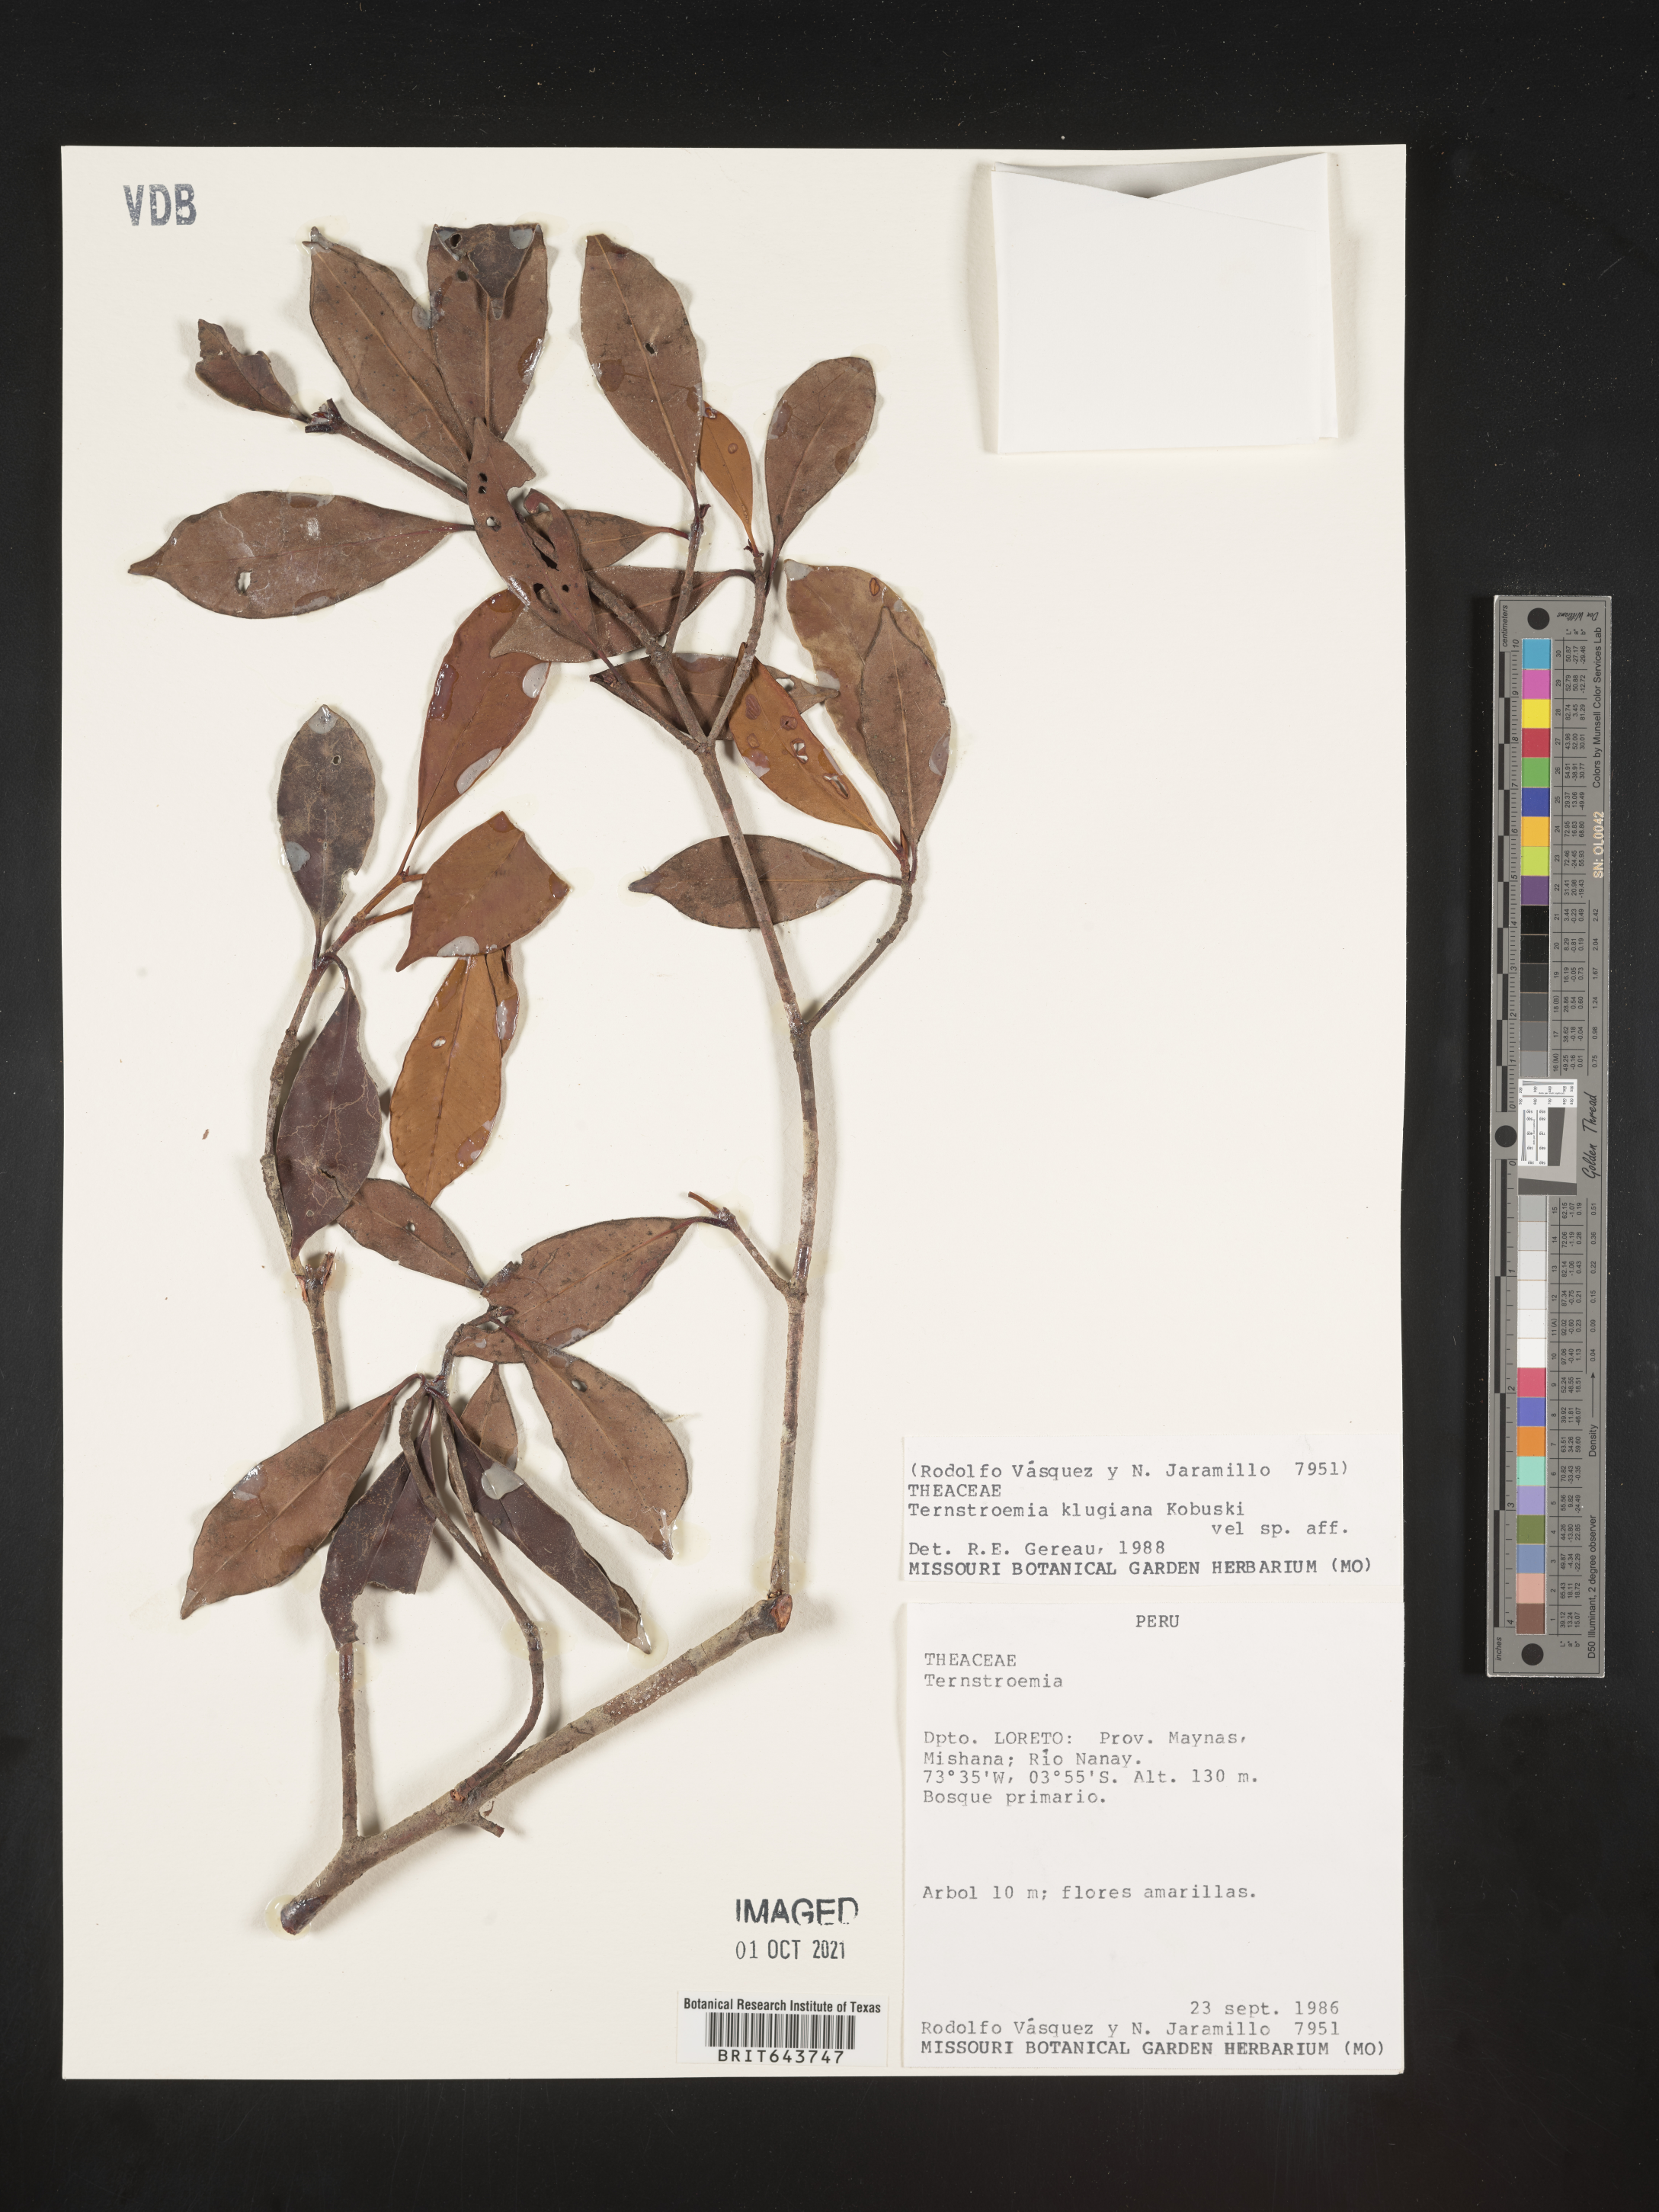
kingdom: Plantae
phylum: Tracheophyta
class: Magnoliopsida
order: Ericales
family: Pentaphylacaceae
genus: Ternstroemia
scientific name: Ternstroemia
